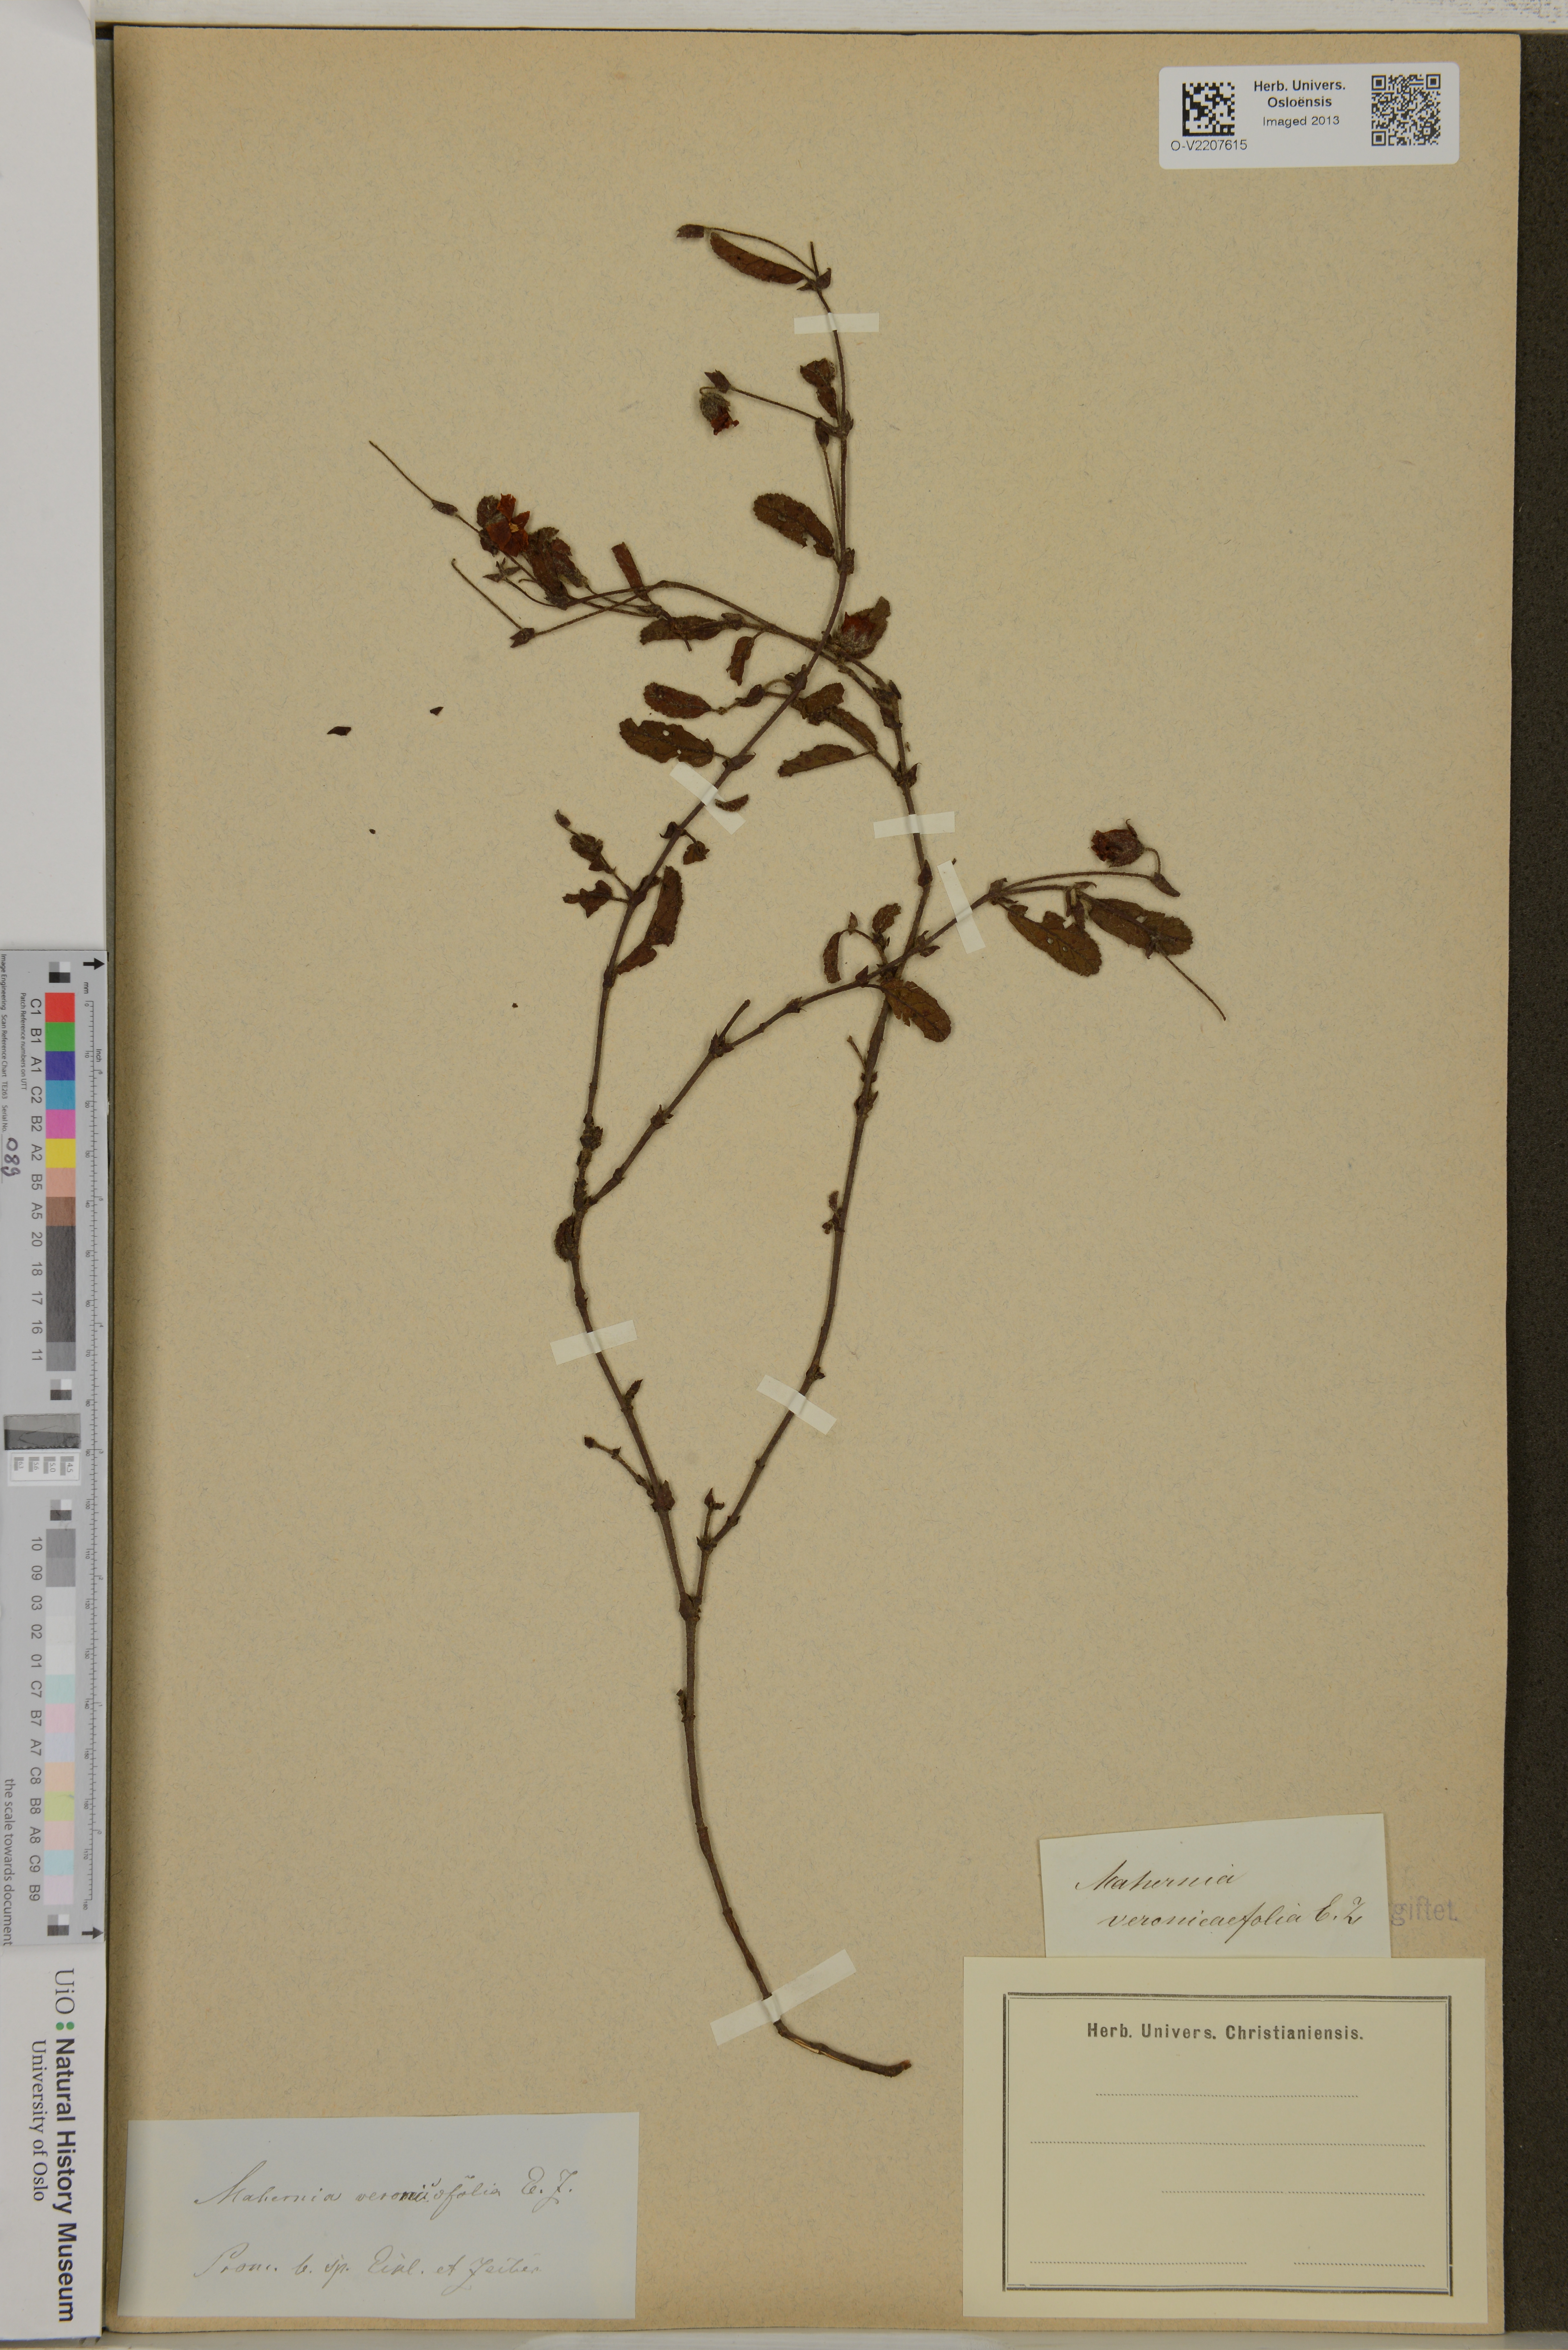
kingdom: Plantae
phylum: Tracheophyta
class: Magnoliopsida
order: Malvales
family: Malvaceae
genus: Hermannia
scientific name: Hermannia veronicaefolia
